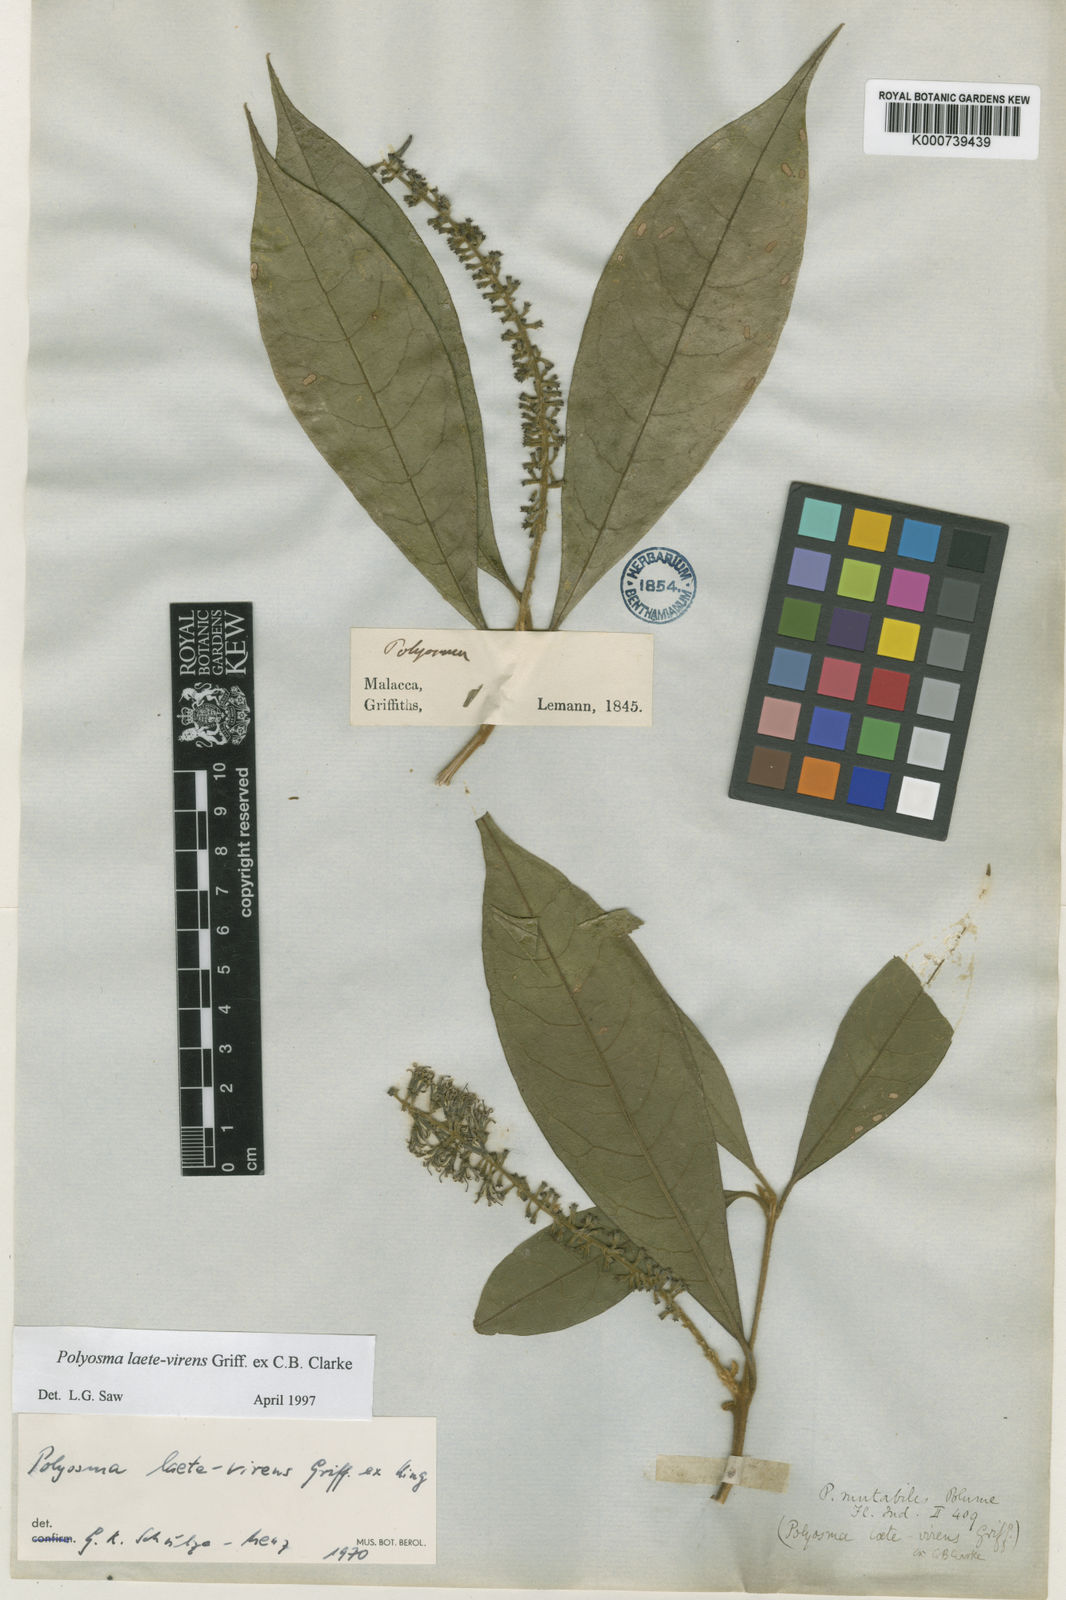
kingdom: Plantae
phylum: Tracheophyta
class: Magnoliopsida
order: Escalloniales
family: Escalloniaceae
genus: Polyosma
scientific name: Polyosma
